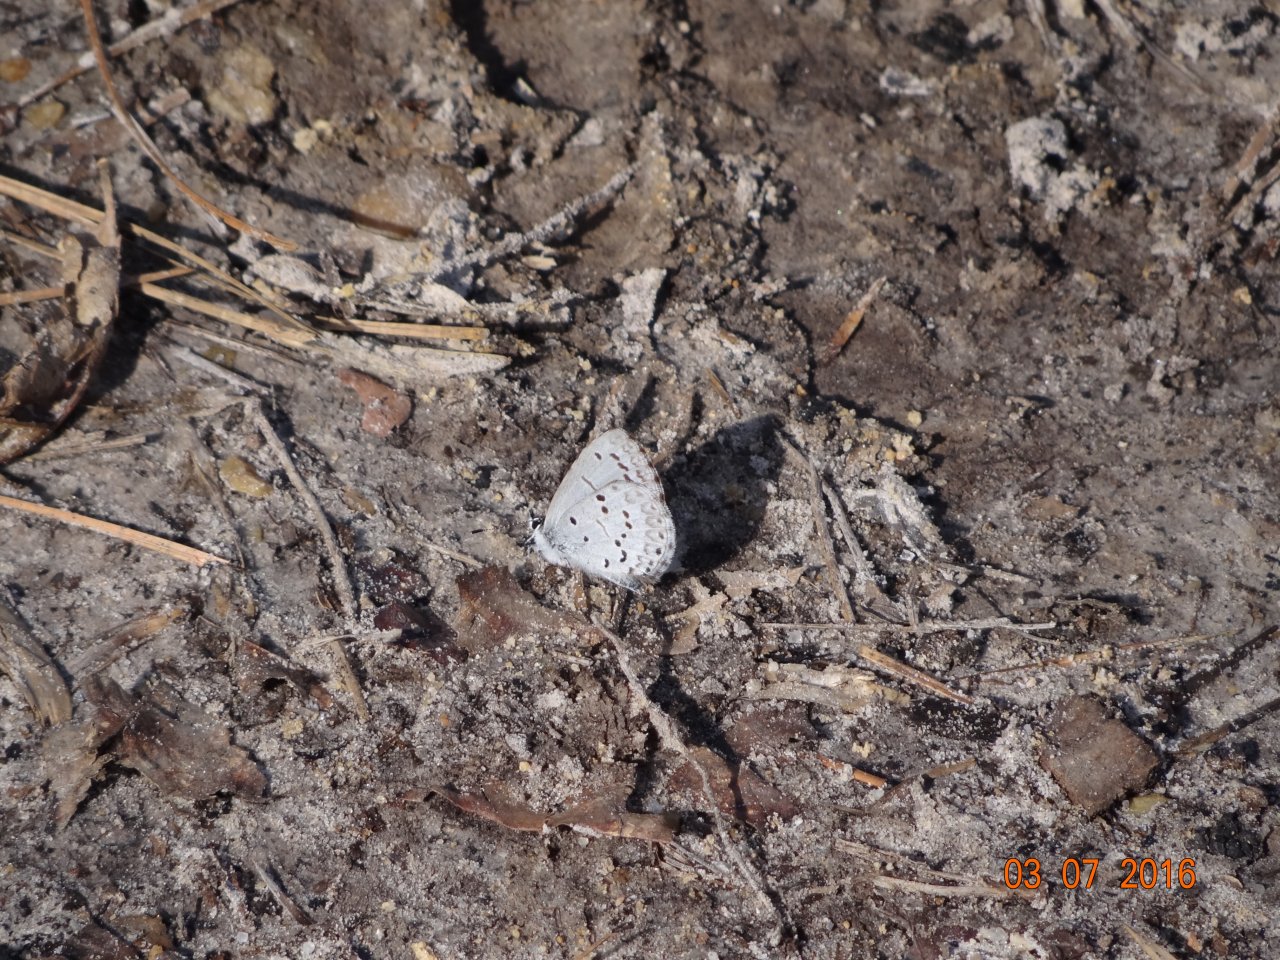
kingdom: Animalia
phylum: Arthropoda
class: Insecta
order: Lepidoptera
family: Lycaenidae
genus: Celastrina
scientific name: Celastrina
